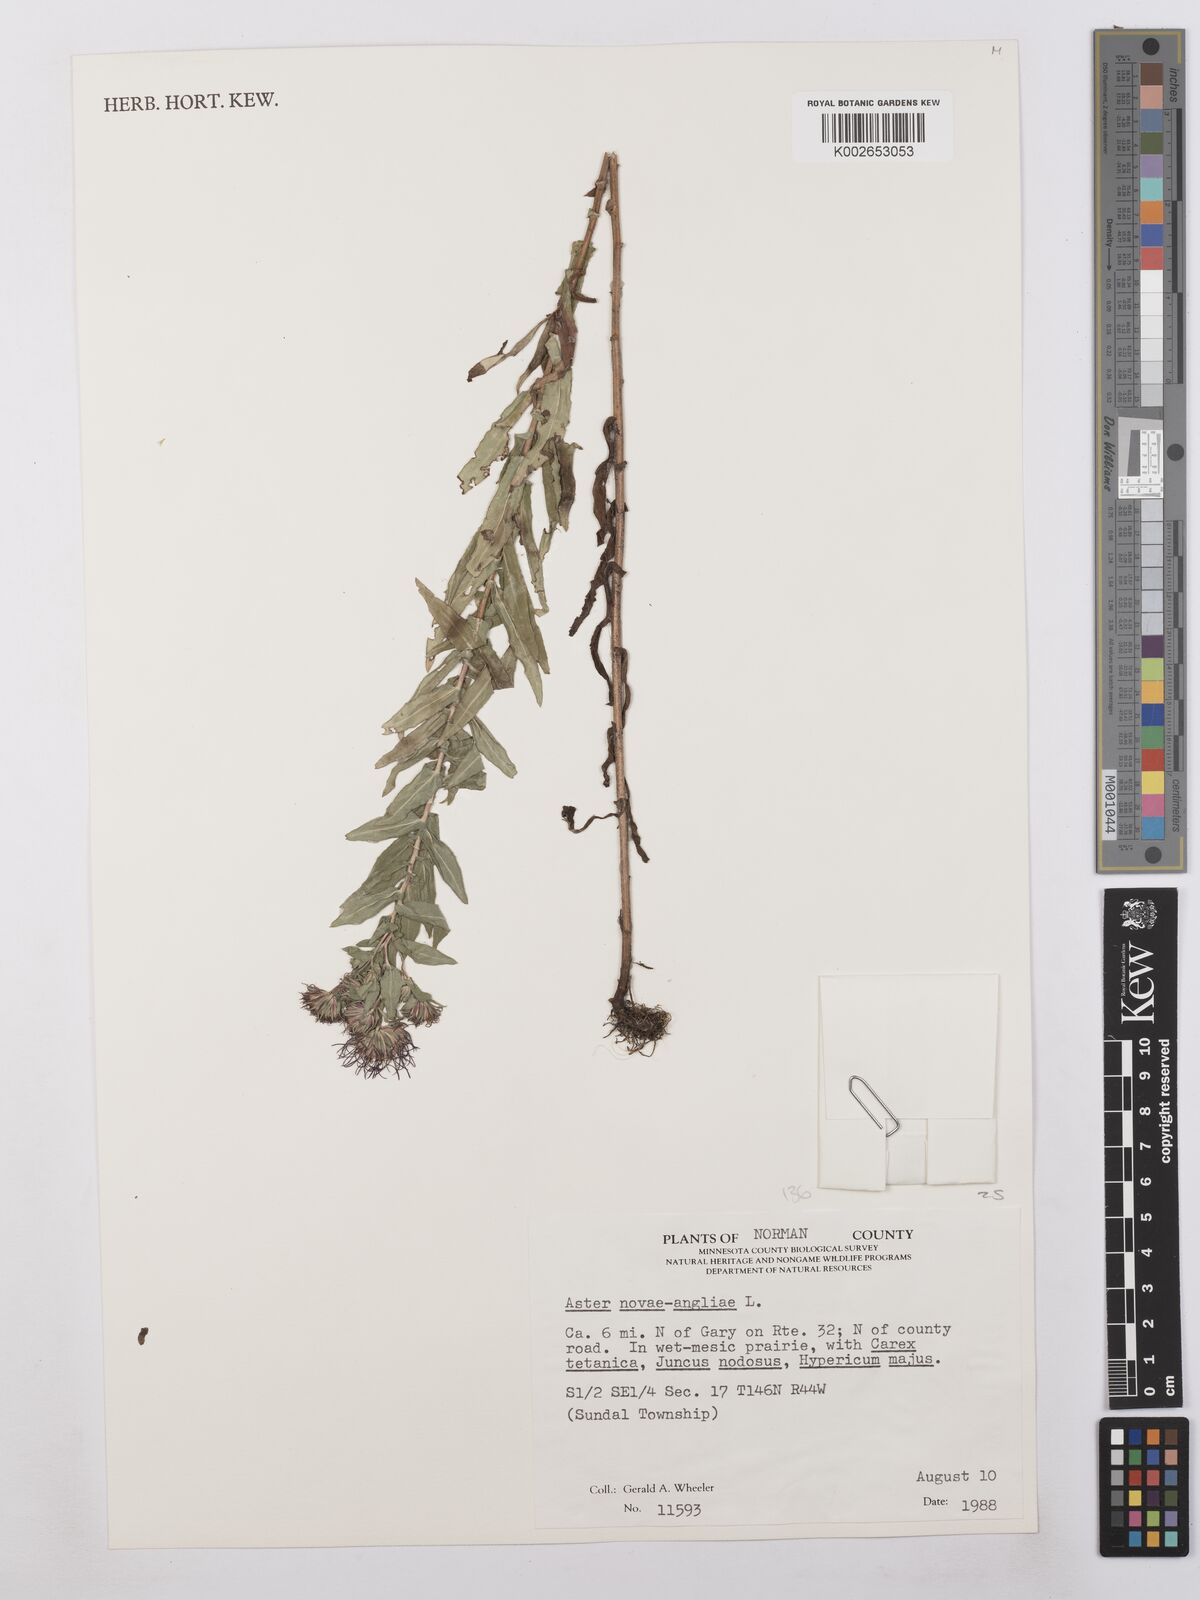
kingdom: Plantae
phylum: Tracheophyta
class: Magnoliopsida
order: Asterales
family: Asteraceae
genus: Symphyotrichum
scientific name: Symphyotrichum novae-angliae
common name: Michaelmas daisy
